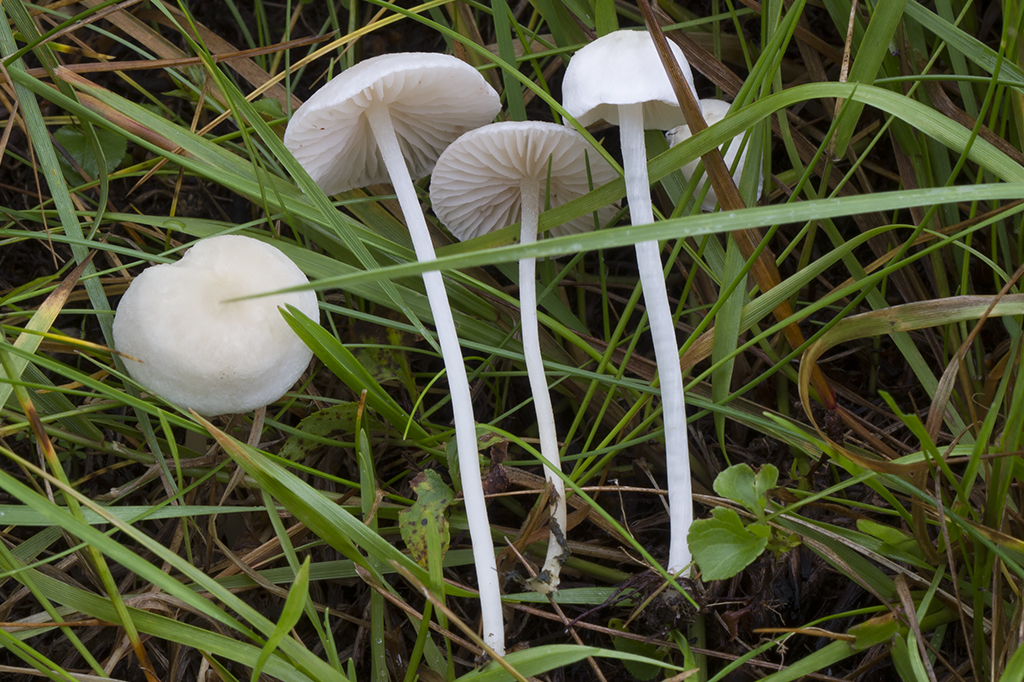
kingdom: Fungi
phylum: Basidiomycota
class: Agaricomycetes
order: Agaricales
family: Entolomataceae
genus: Entoloma
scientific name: Entoloma sericellum
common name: silkehvid rødblad
